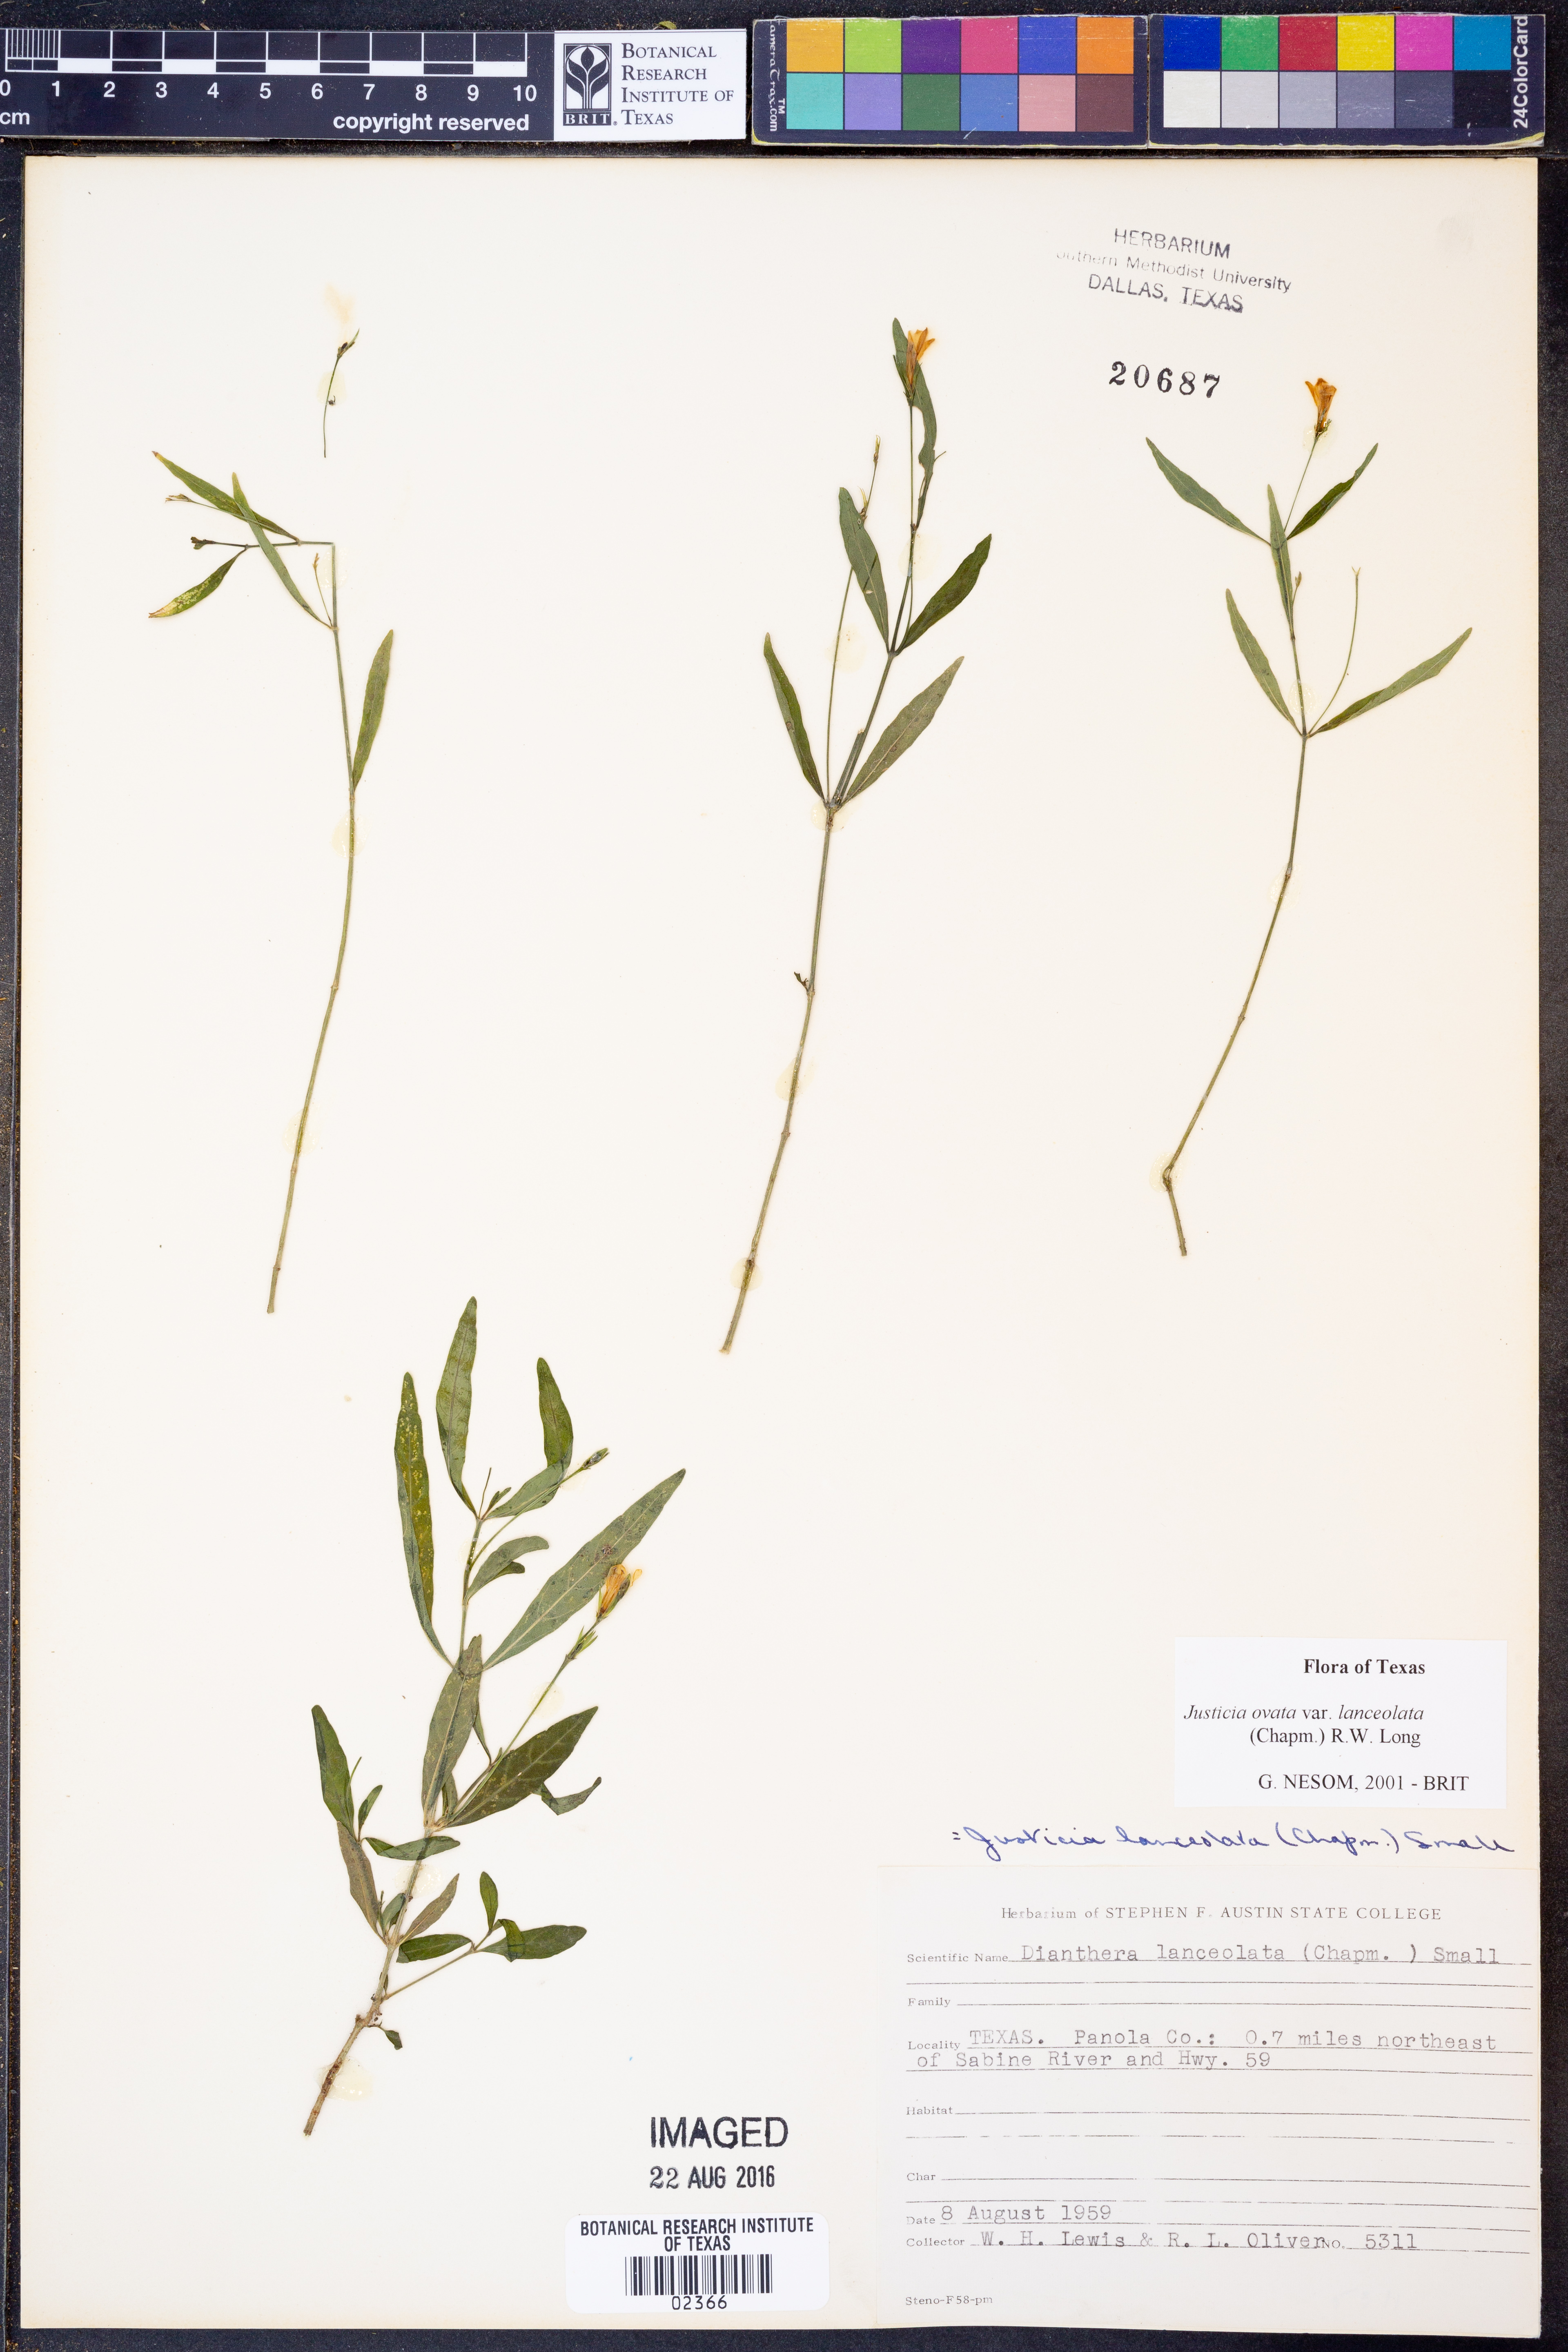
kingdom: Plantae
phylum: Tracheophyta
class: Magnoliopsida
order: Lamiales
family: Acanthaceae
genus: Justicia
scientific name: Justicia lanceolata
